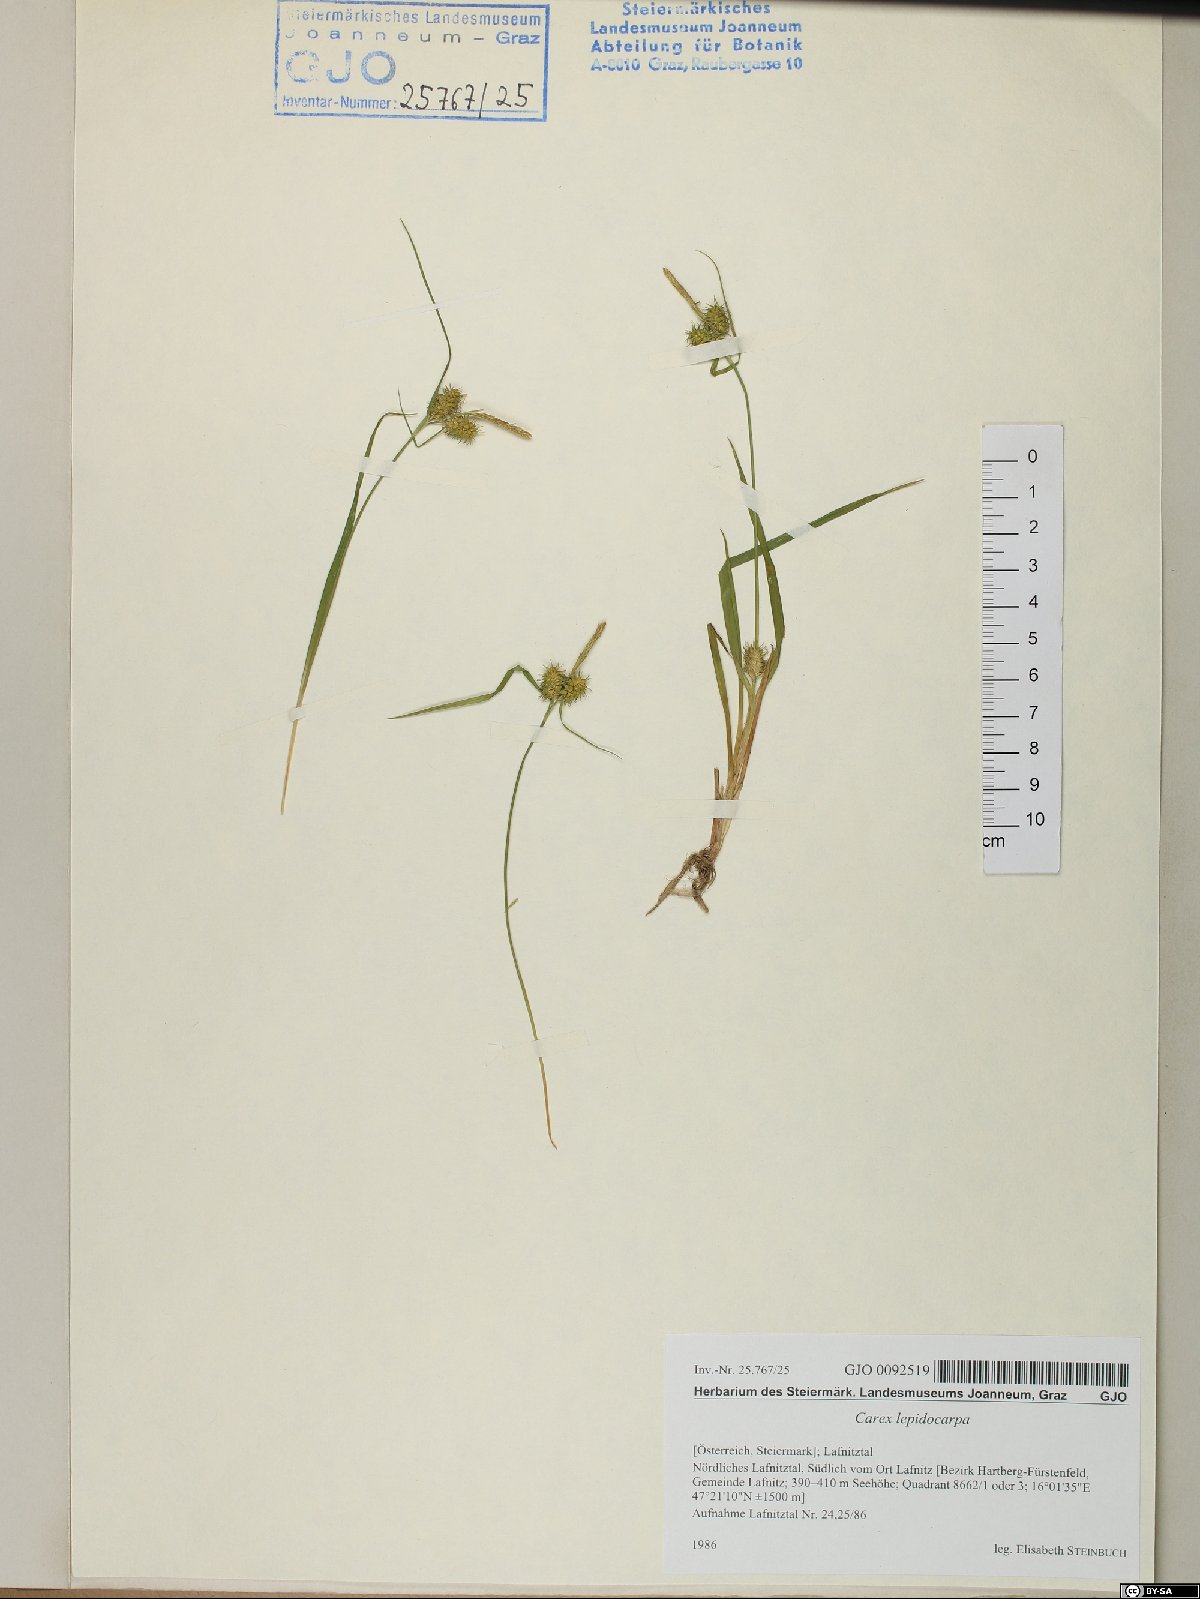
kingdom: Plantae
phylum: Tracheophyta
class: Liliopsida
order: Poales
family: Cyperaceae
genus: Carex
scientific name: Carex lepidocarpa
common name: Long-stalked yellow-sedge
